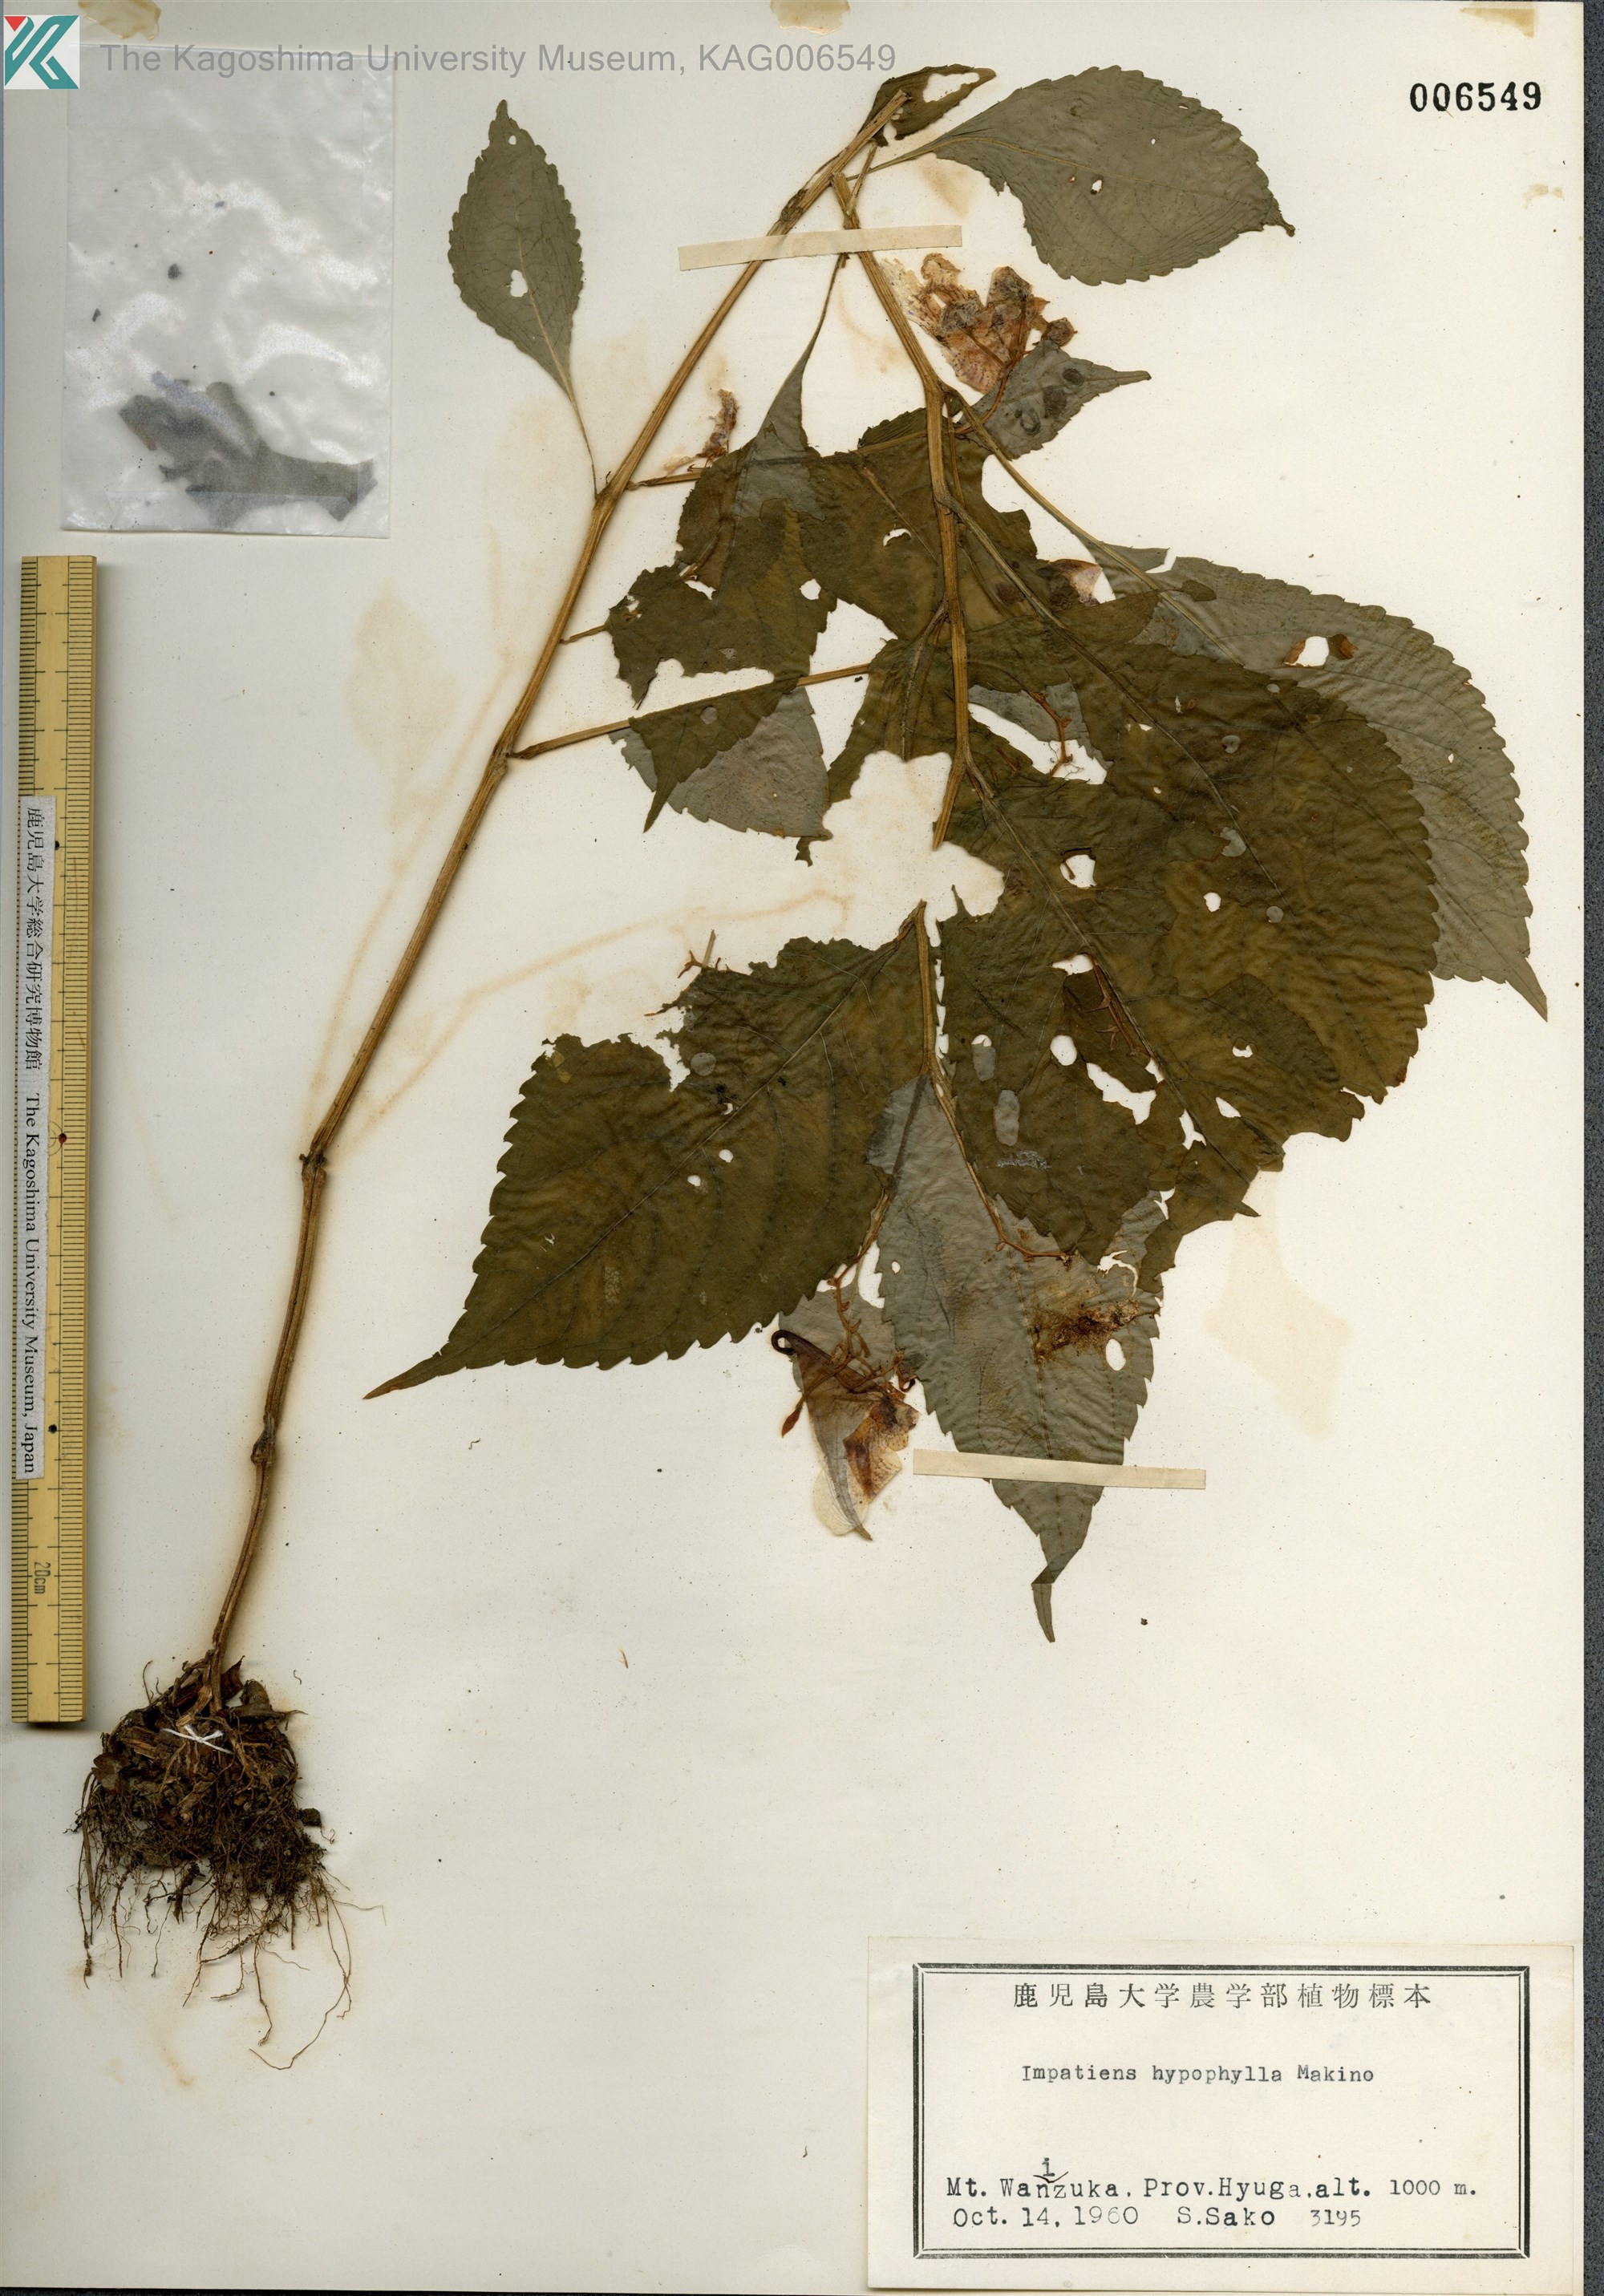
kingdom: Plantae
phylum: Tracheophyta
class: Magnoliopsida
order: Ericales
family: Balsaminaceae
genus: Impatiens
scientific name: Impatiens hypophylla
